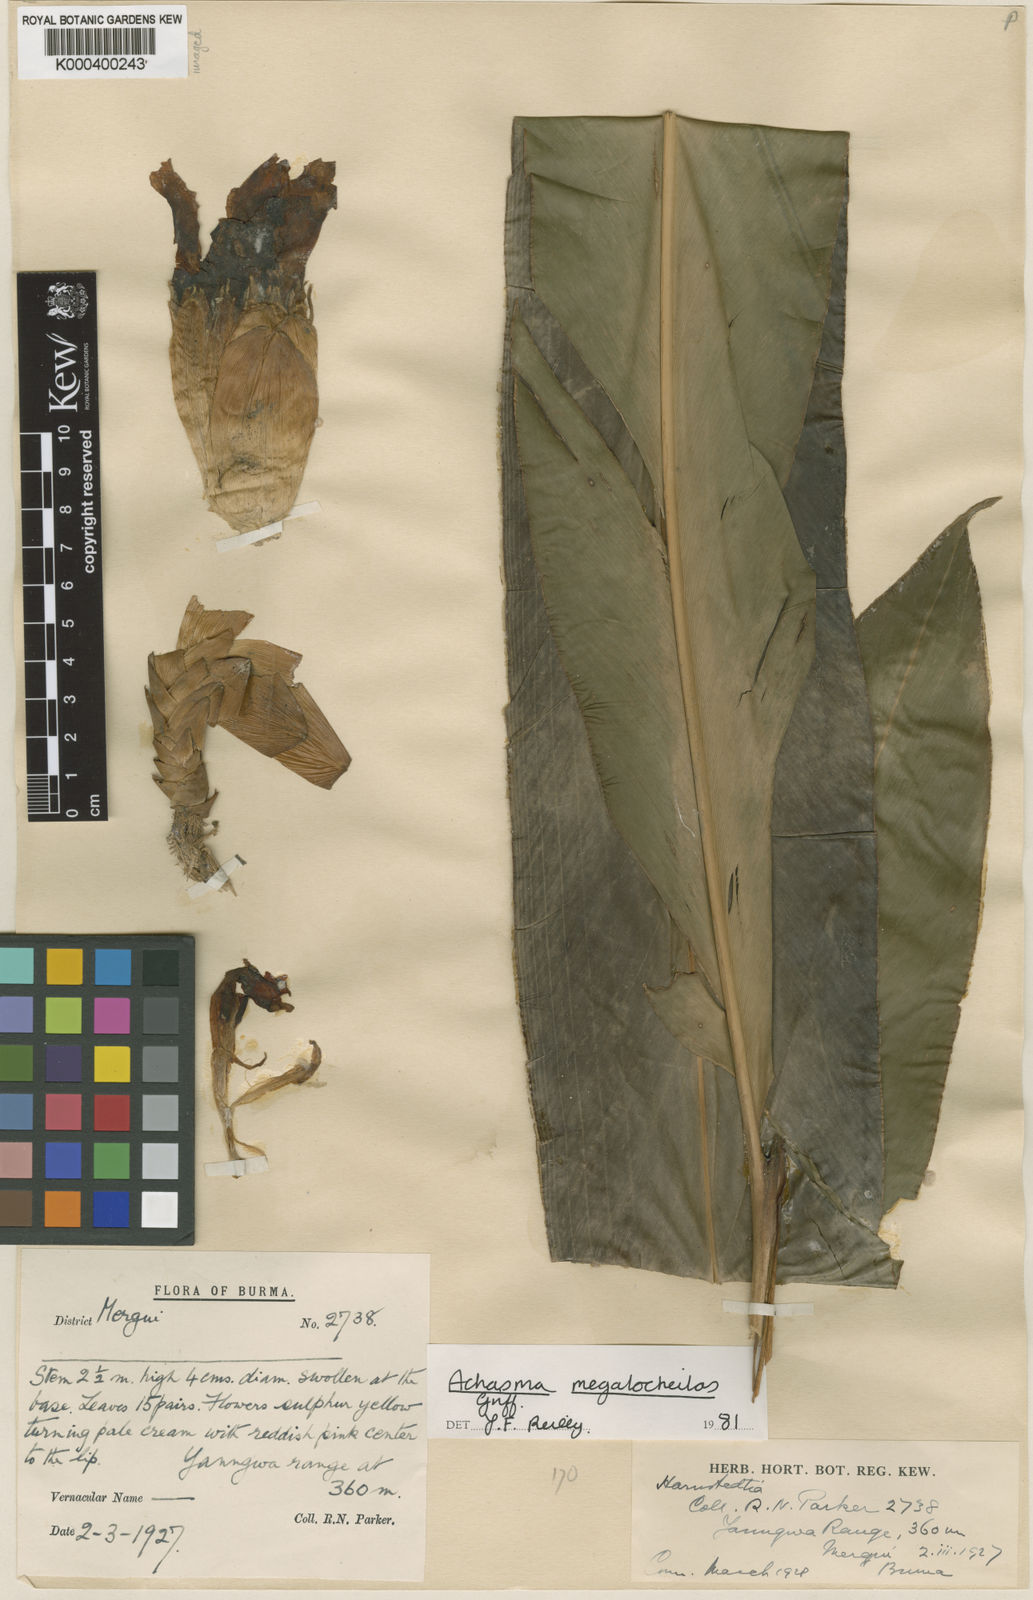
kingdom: Plantae
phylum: Tracheophyta
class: Liliopsida
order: Zingiberales
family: Zingiberaceae
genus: Etlingera
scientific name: Etlingera sulfurea
